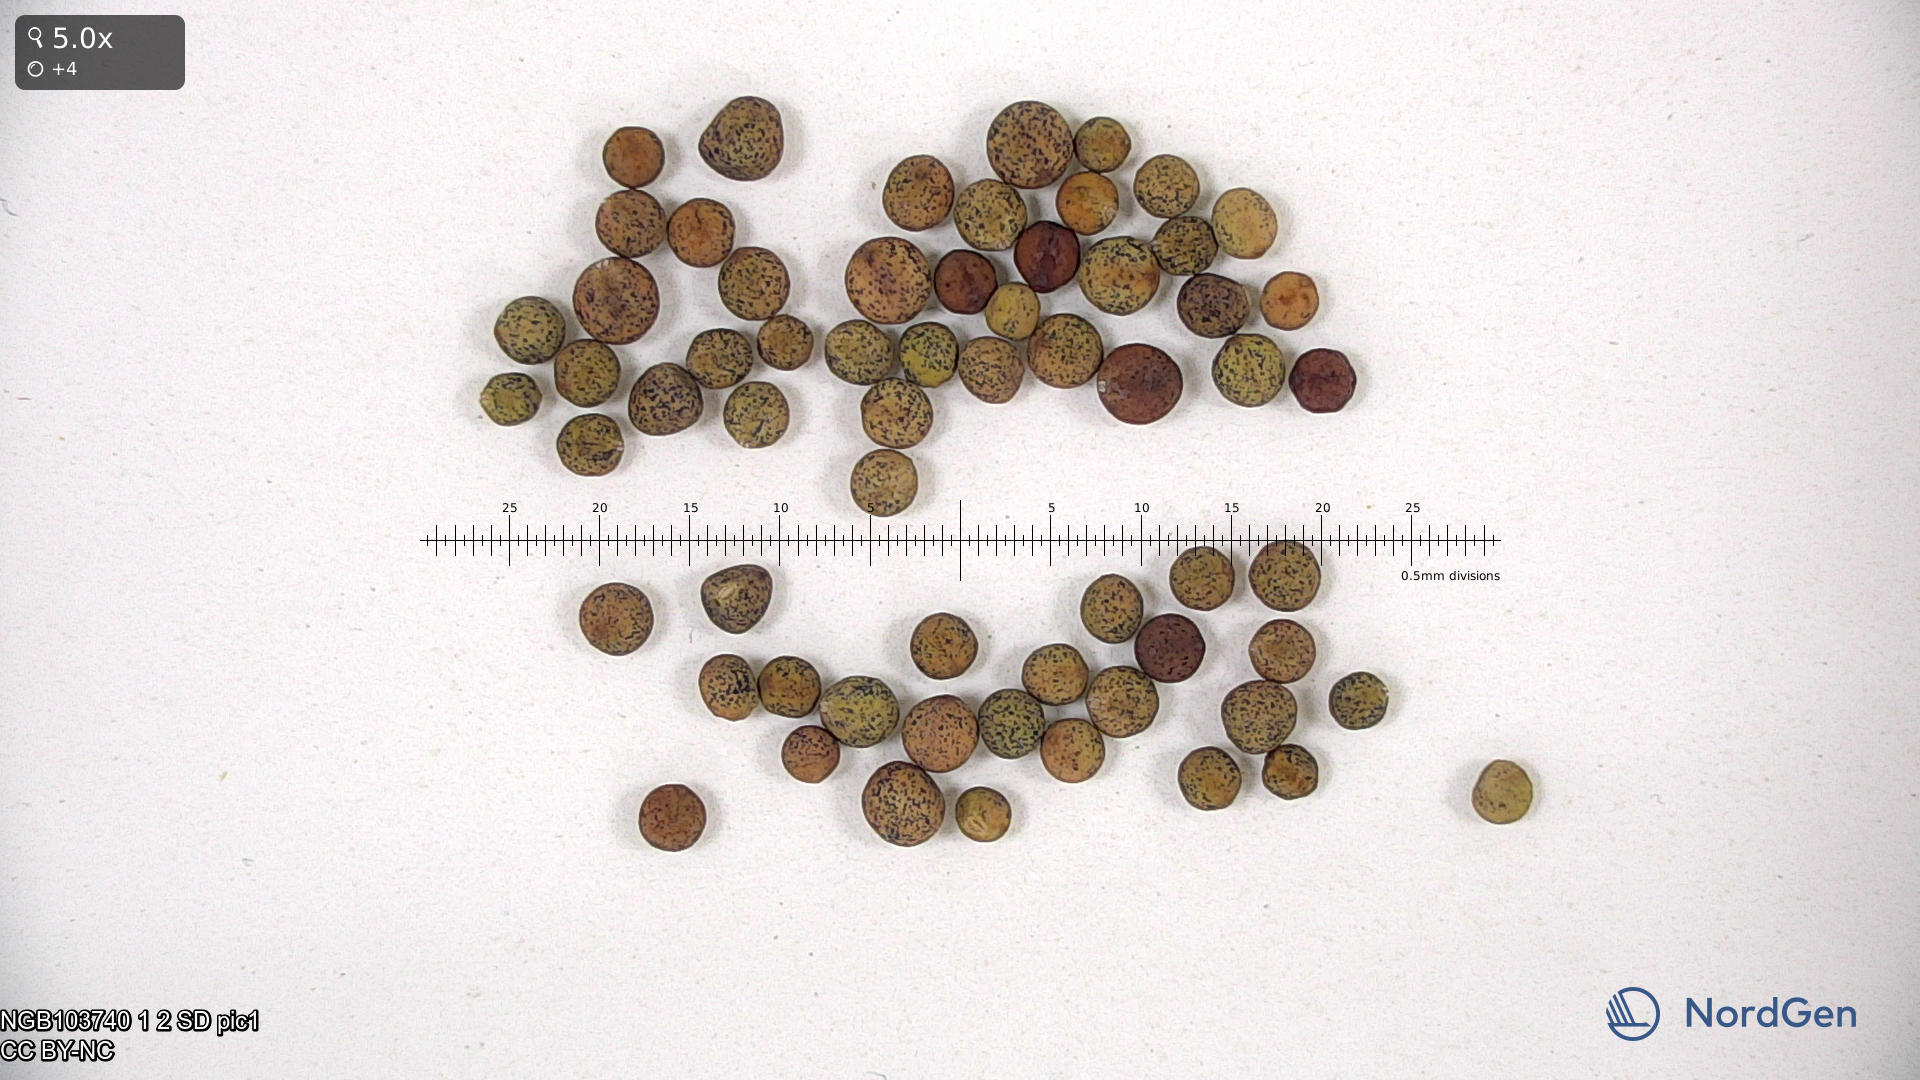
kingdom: Plantae
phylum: Tracheophyta
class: Magnoliopsida
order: Fabales
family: Fabaceae
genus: Lathyrus
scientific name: Lathyrus oleraceus
